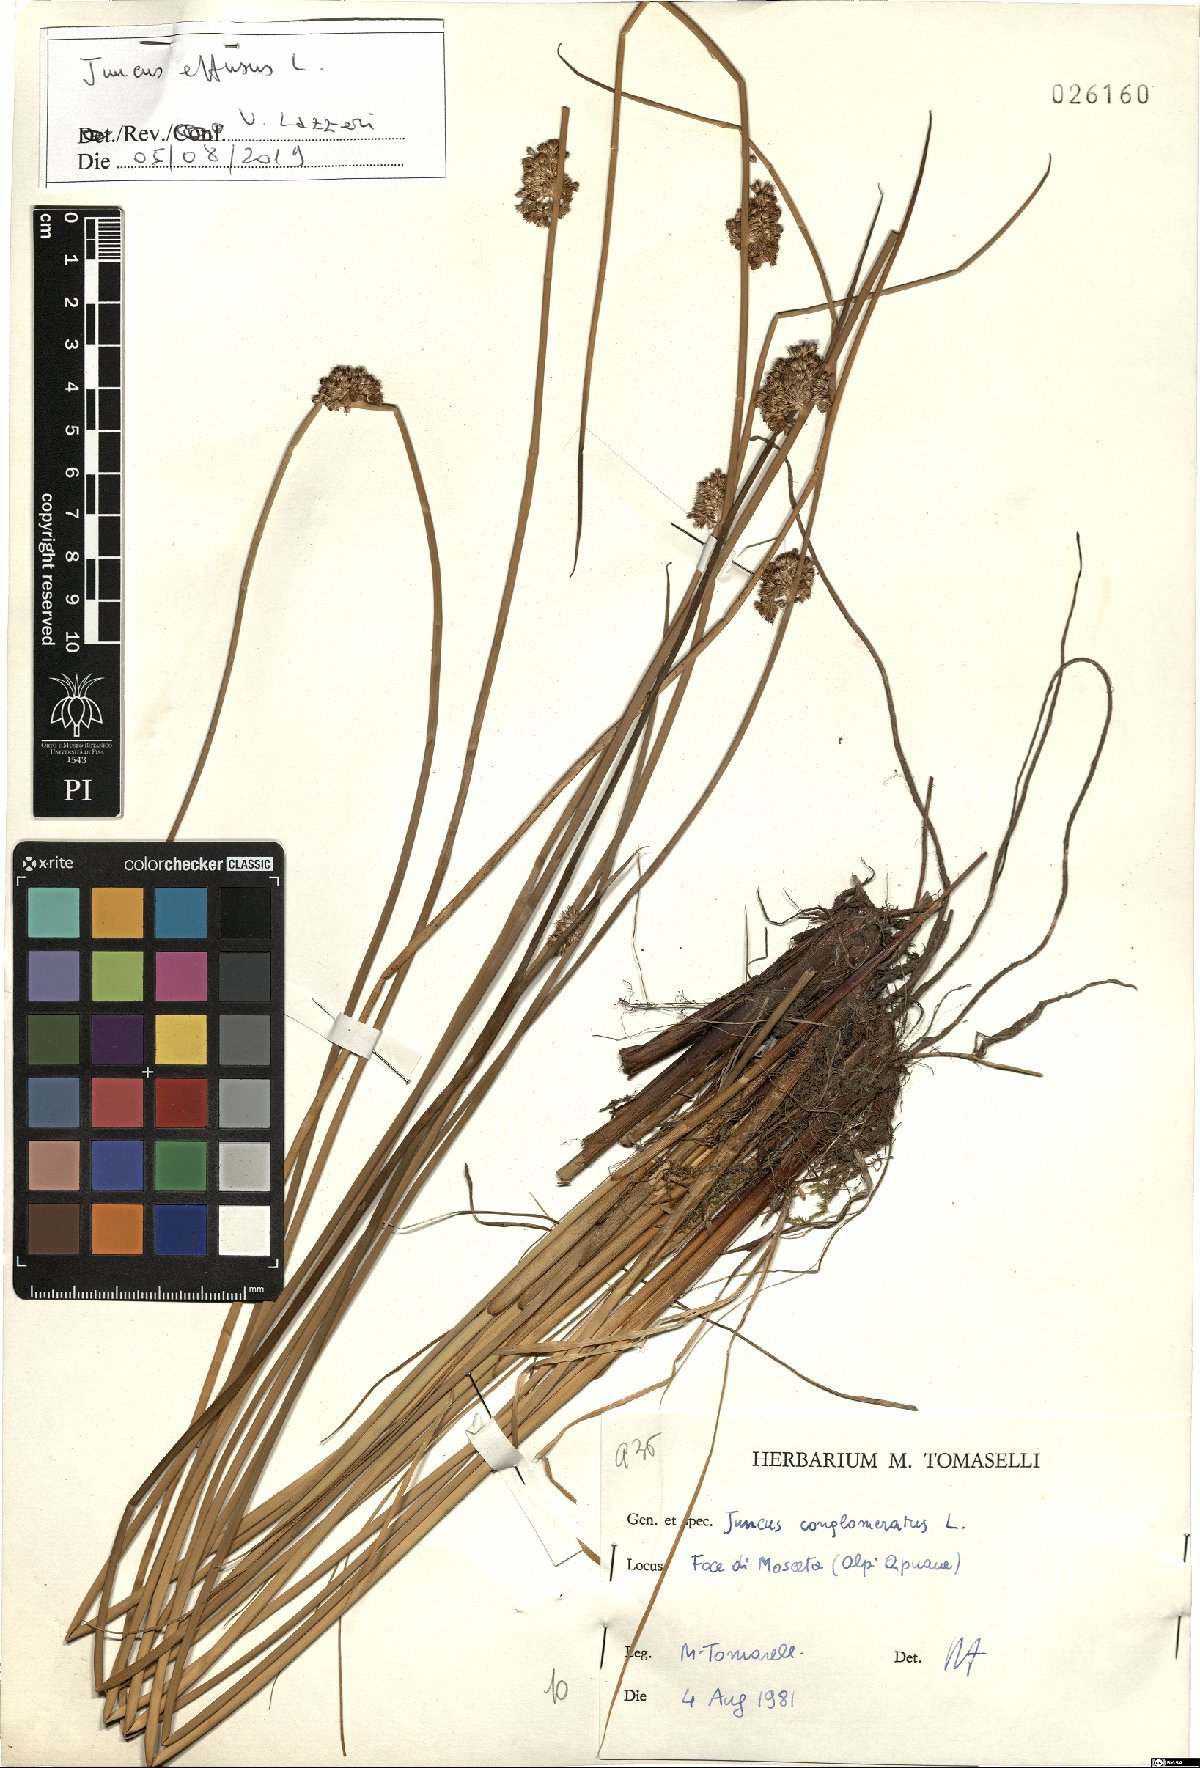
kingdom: Plantae
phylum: Tracheophyta
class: Liliopsida
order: Poales
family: Juncaceae
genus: Juncus
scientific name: Juncus effusus
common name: Soft rush
